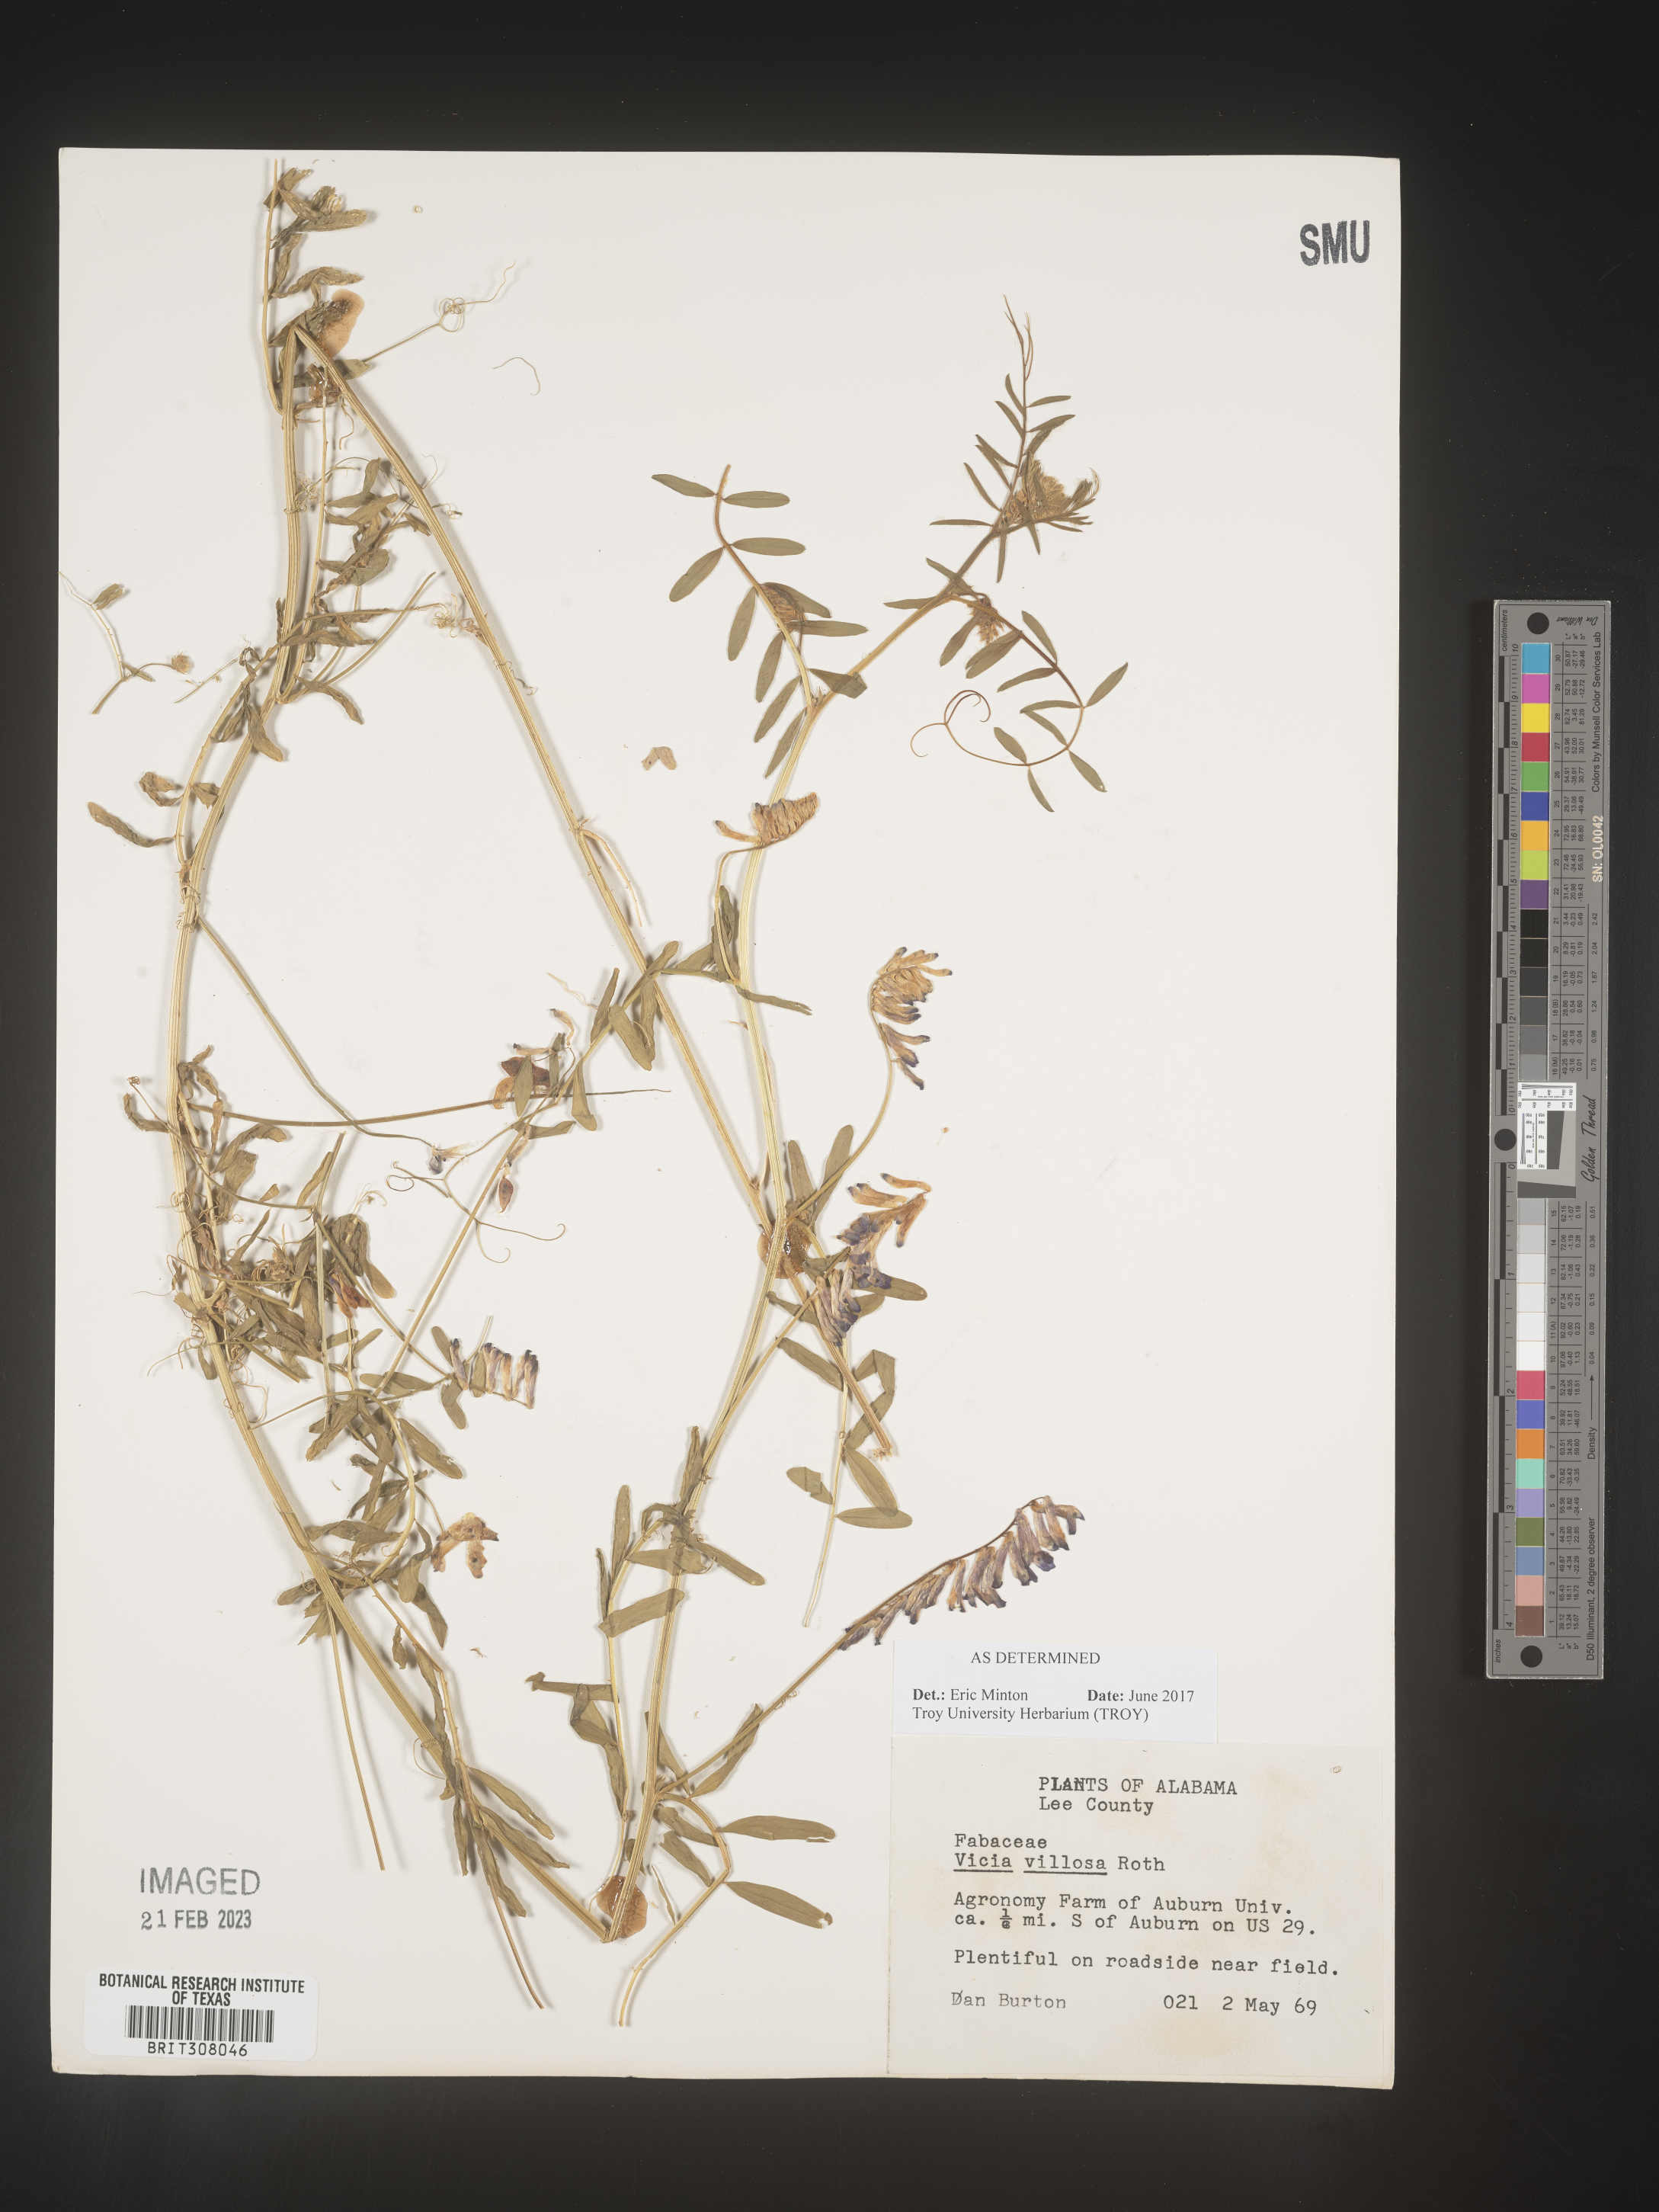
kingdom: Plantae
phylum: Tracheophyta
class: Magnoliopsida
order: Fabales
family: Fabaceae
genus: Vicia
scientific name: Vicia villosa
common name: Fodder vetch
